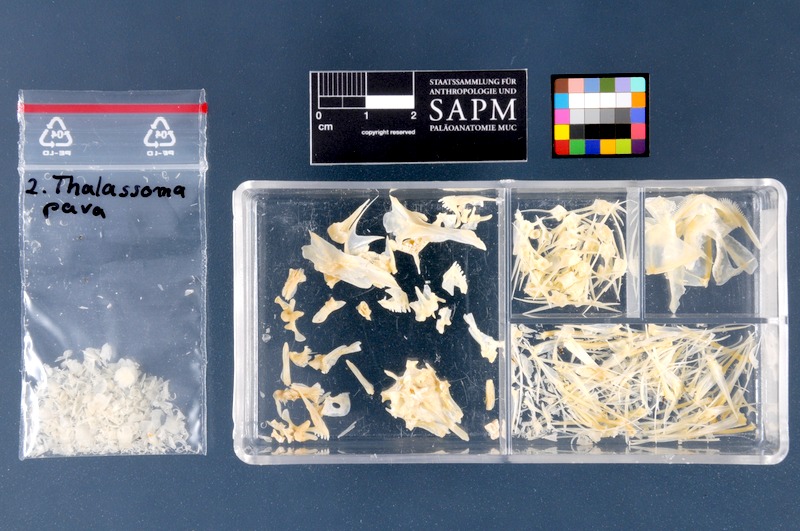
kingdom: Animalia
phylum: Chordata
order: Perciformes
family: Labridae
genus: Thalassoma
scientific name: Thalassoma pavo
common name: Ornate wrasse
